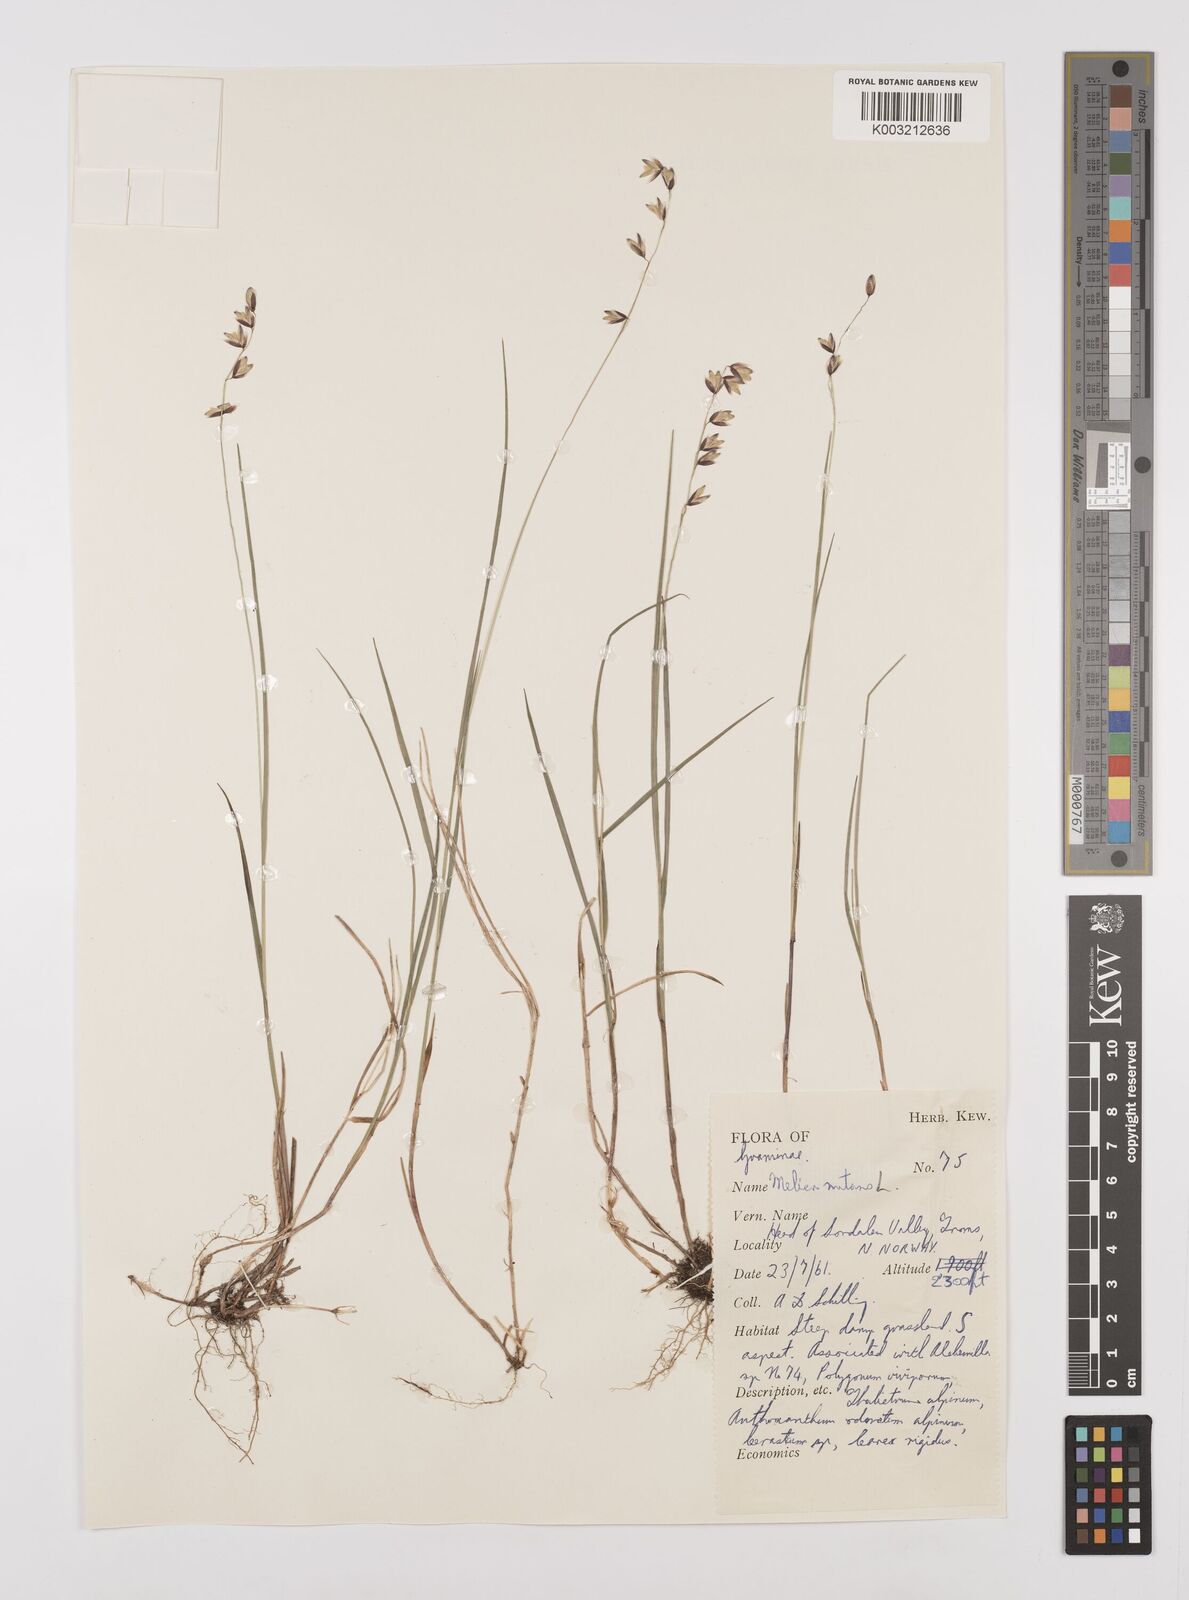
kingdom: Plantae
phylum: Tracheophyta
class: Liliopsida
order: Poales
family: Poaceae
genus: Melica
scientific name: Melica
